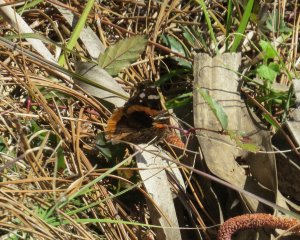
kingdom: Animalia
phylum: Arthropoda
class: Insecta
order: Lepidoptera
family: Nymphalidae
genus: Vanessa
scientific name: Vanessa atalanta
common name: Red Admiral
